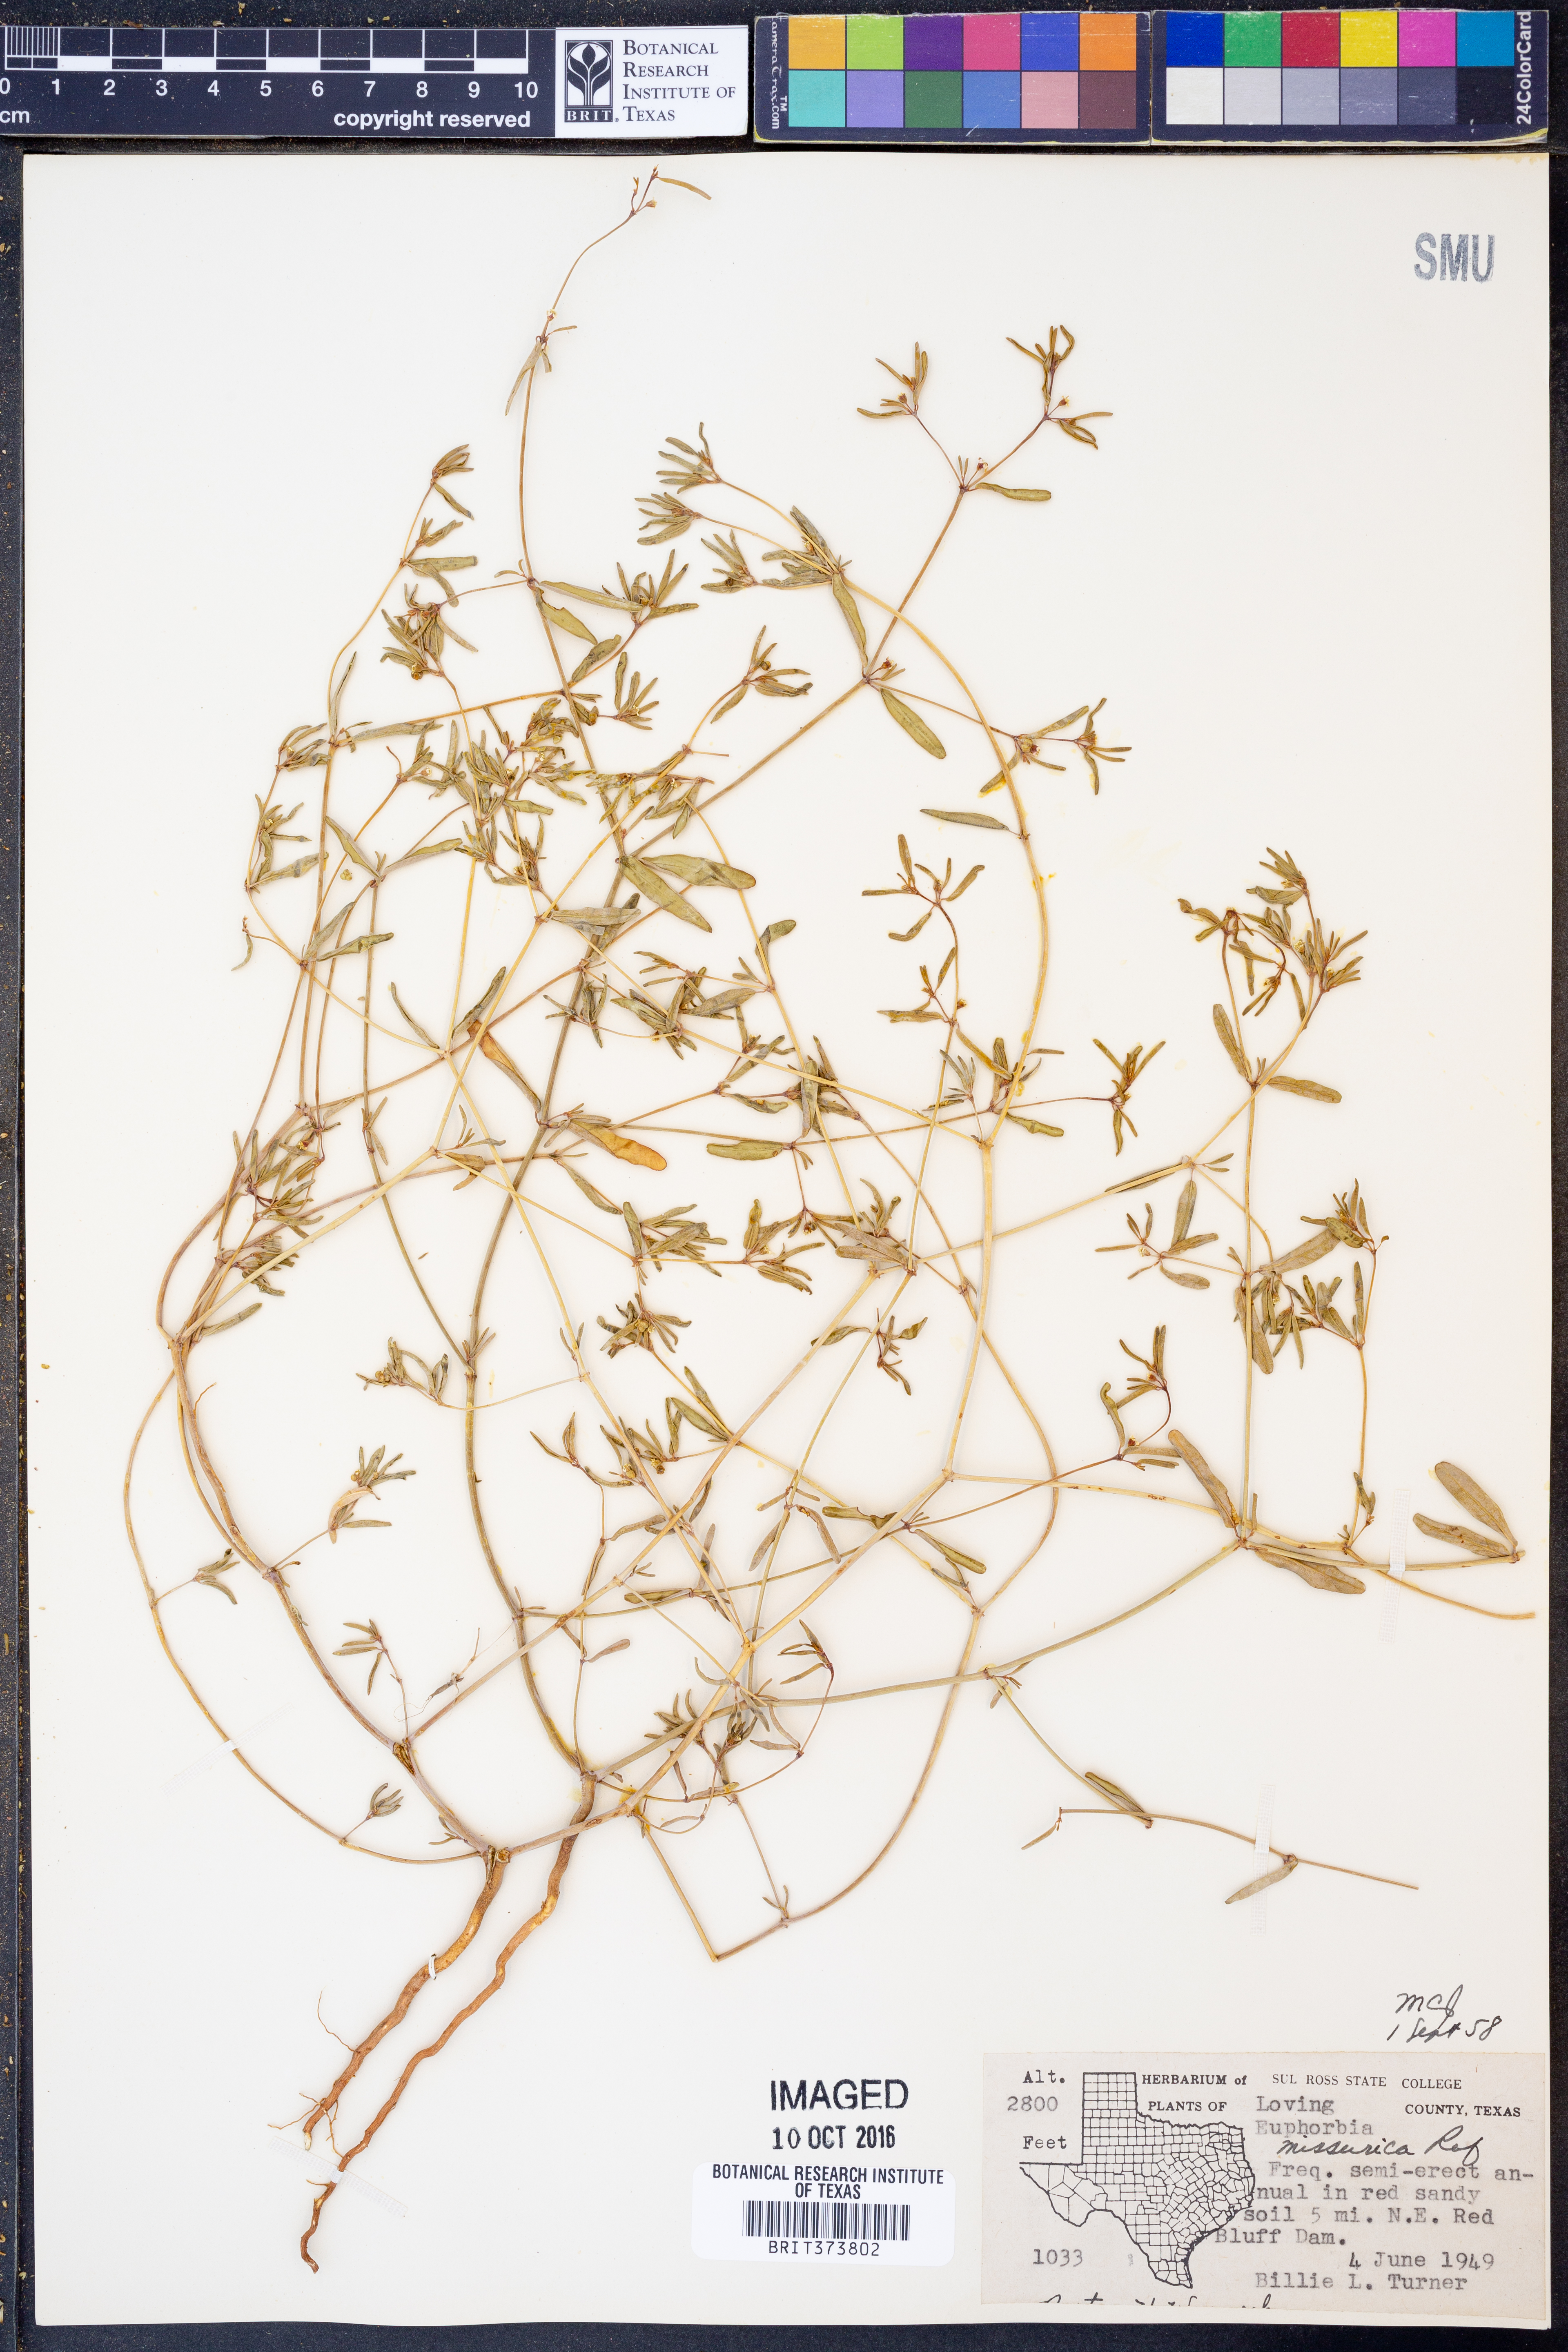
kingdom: Plantae
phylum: Tracheophyta
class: Magnoliopsida
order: Malpighiales
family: Euphorbiaceae
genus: Euphorbia
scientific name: Euphorbia missurica
